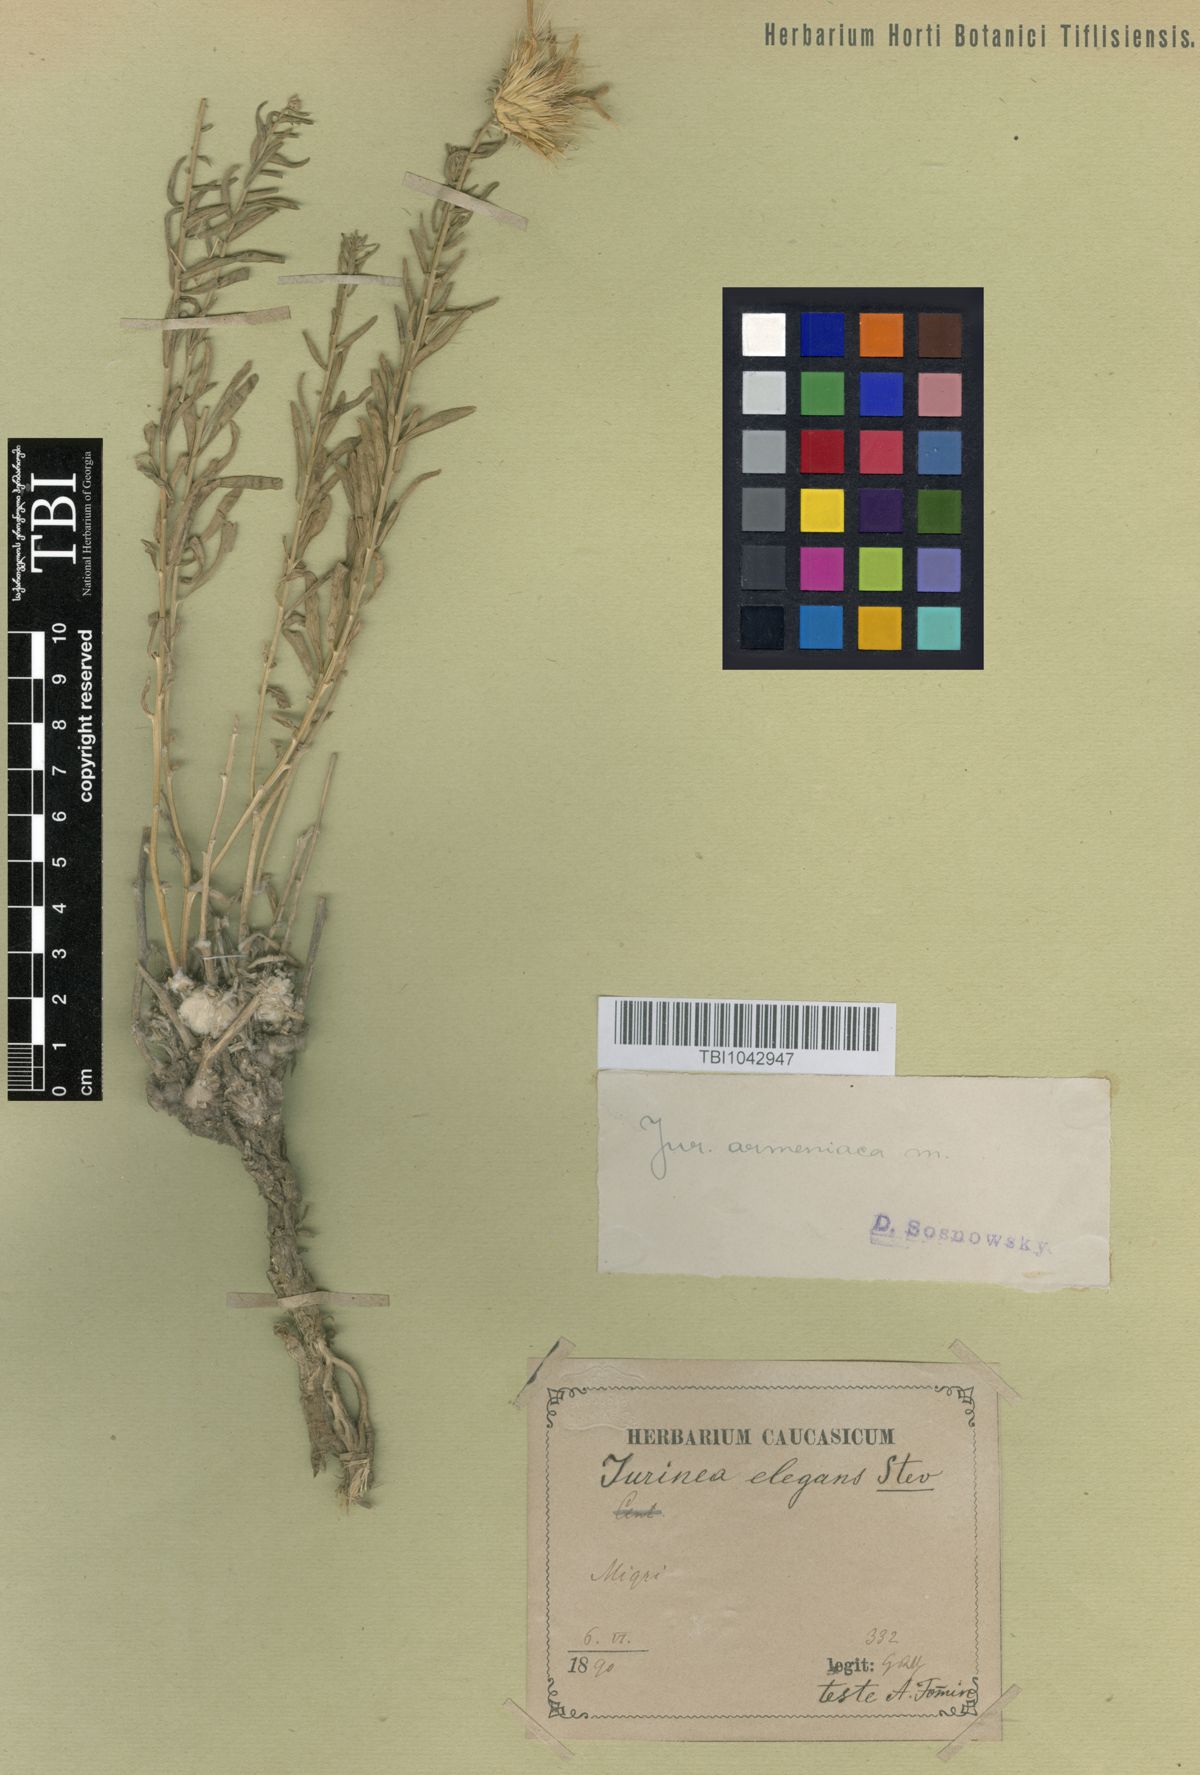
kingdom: Plantae
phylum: Tracheophyta
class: Magnoliopsida
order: Asterales
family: Asteraceae
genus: Jurinea
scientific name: Jurinea elegans
